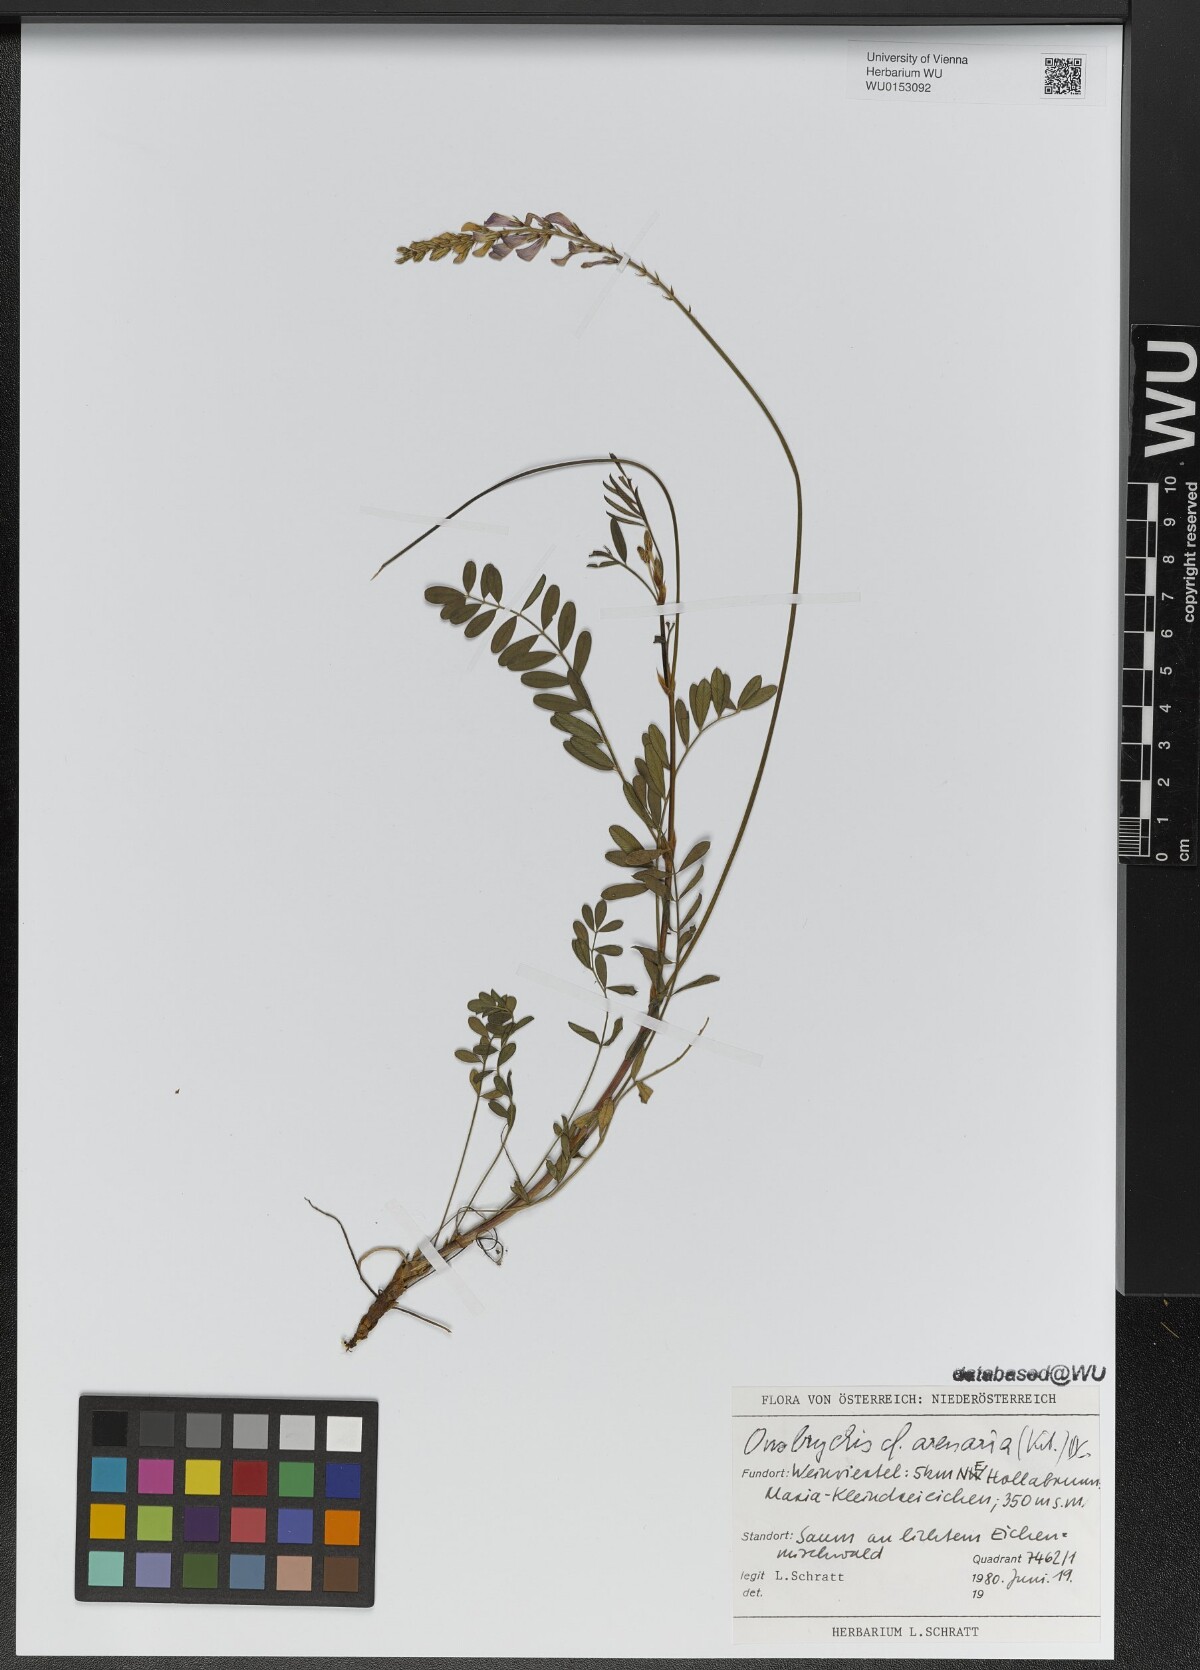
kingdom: Plantae
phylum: Tracheophyta
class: Magnoliopsida
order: Fabales
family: Fabaceae
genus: Onobrychis
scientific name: Onobrychis arenaria
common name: Sand esparcet
